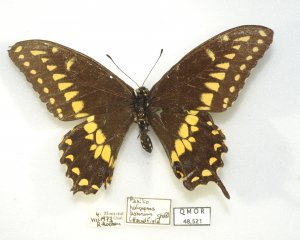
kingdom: Animalia
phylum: Arthropoda
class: Insecta
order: Lepidoptera
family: Papilionidae
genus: Papilio
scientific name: Papilio polyxenes
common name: Black Swallowtail
